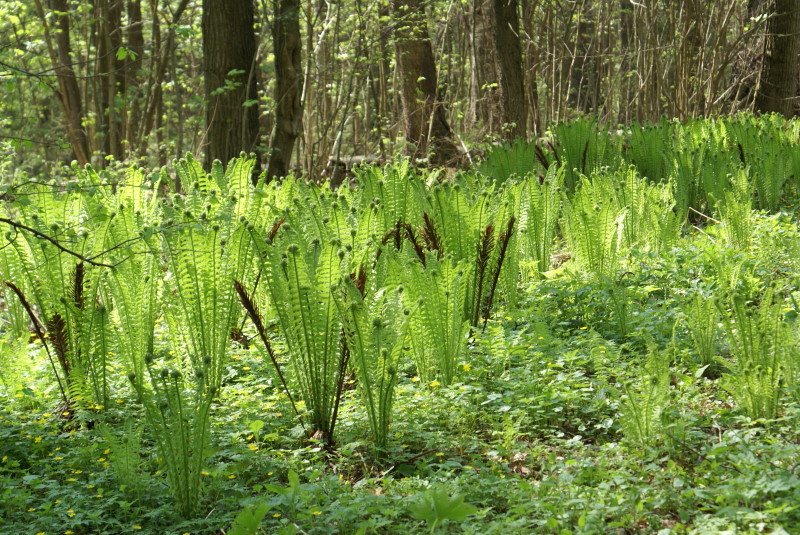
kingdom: Plantae
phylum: Tracheophyta
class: Polypodiopsida
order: Polypodiales
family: Onocleaceae
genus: Matteuccia
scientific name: Matteuccia struthiopteris
